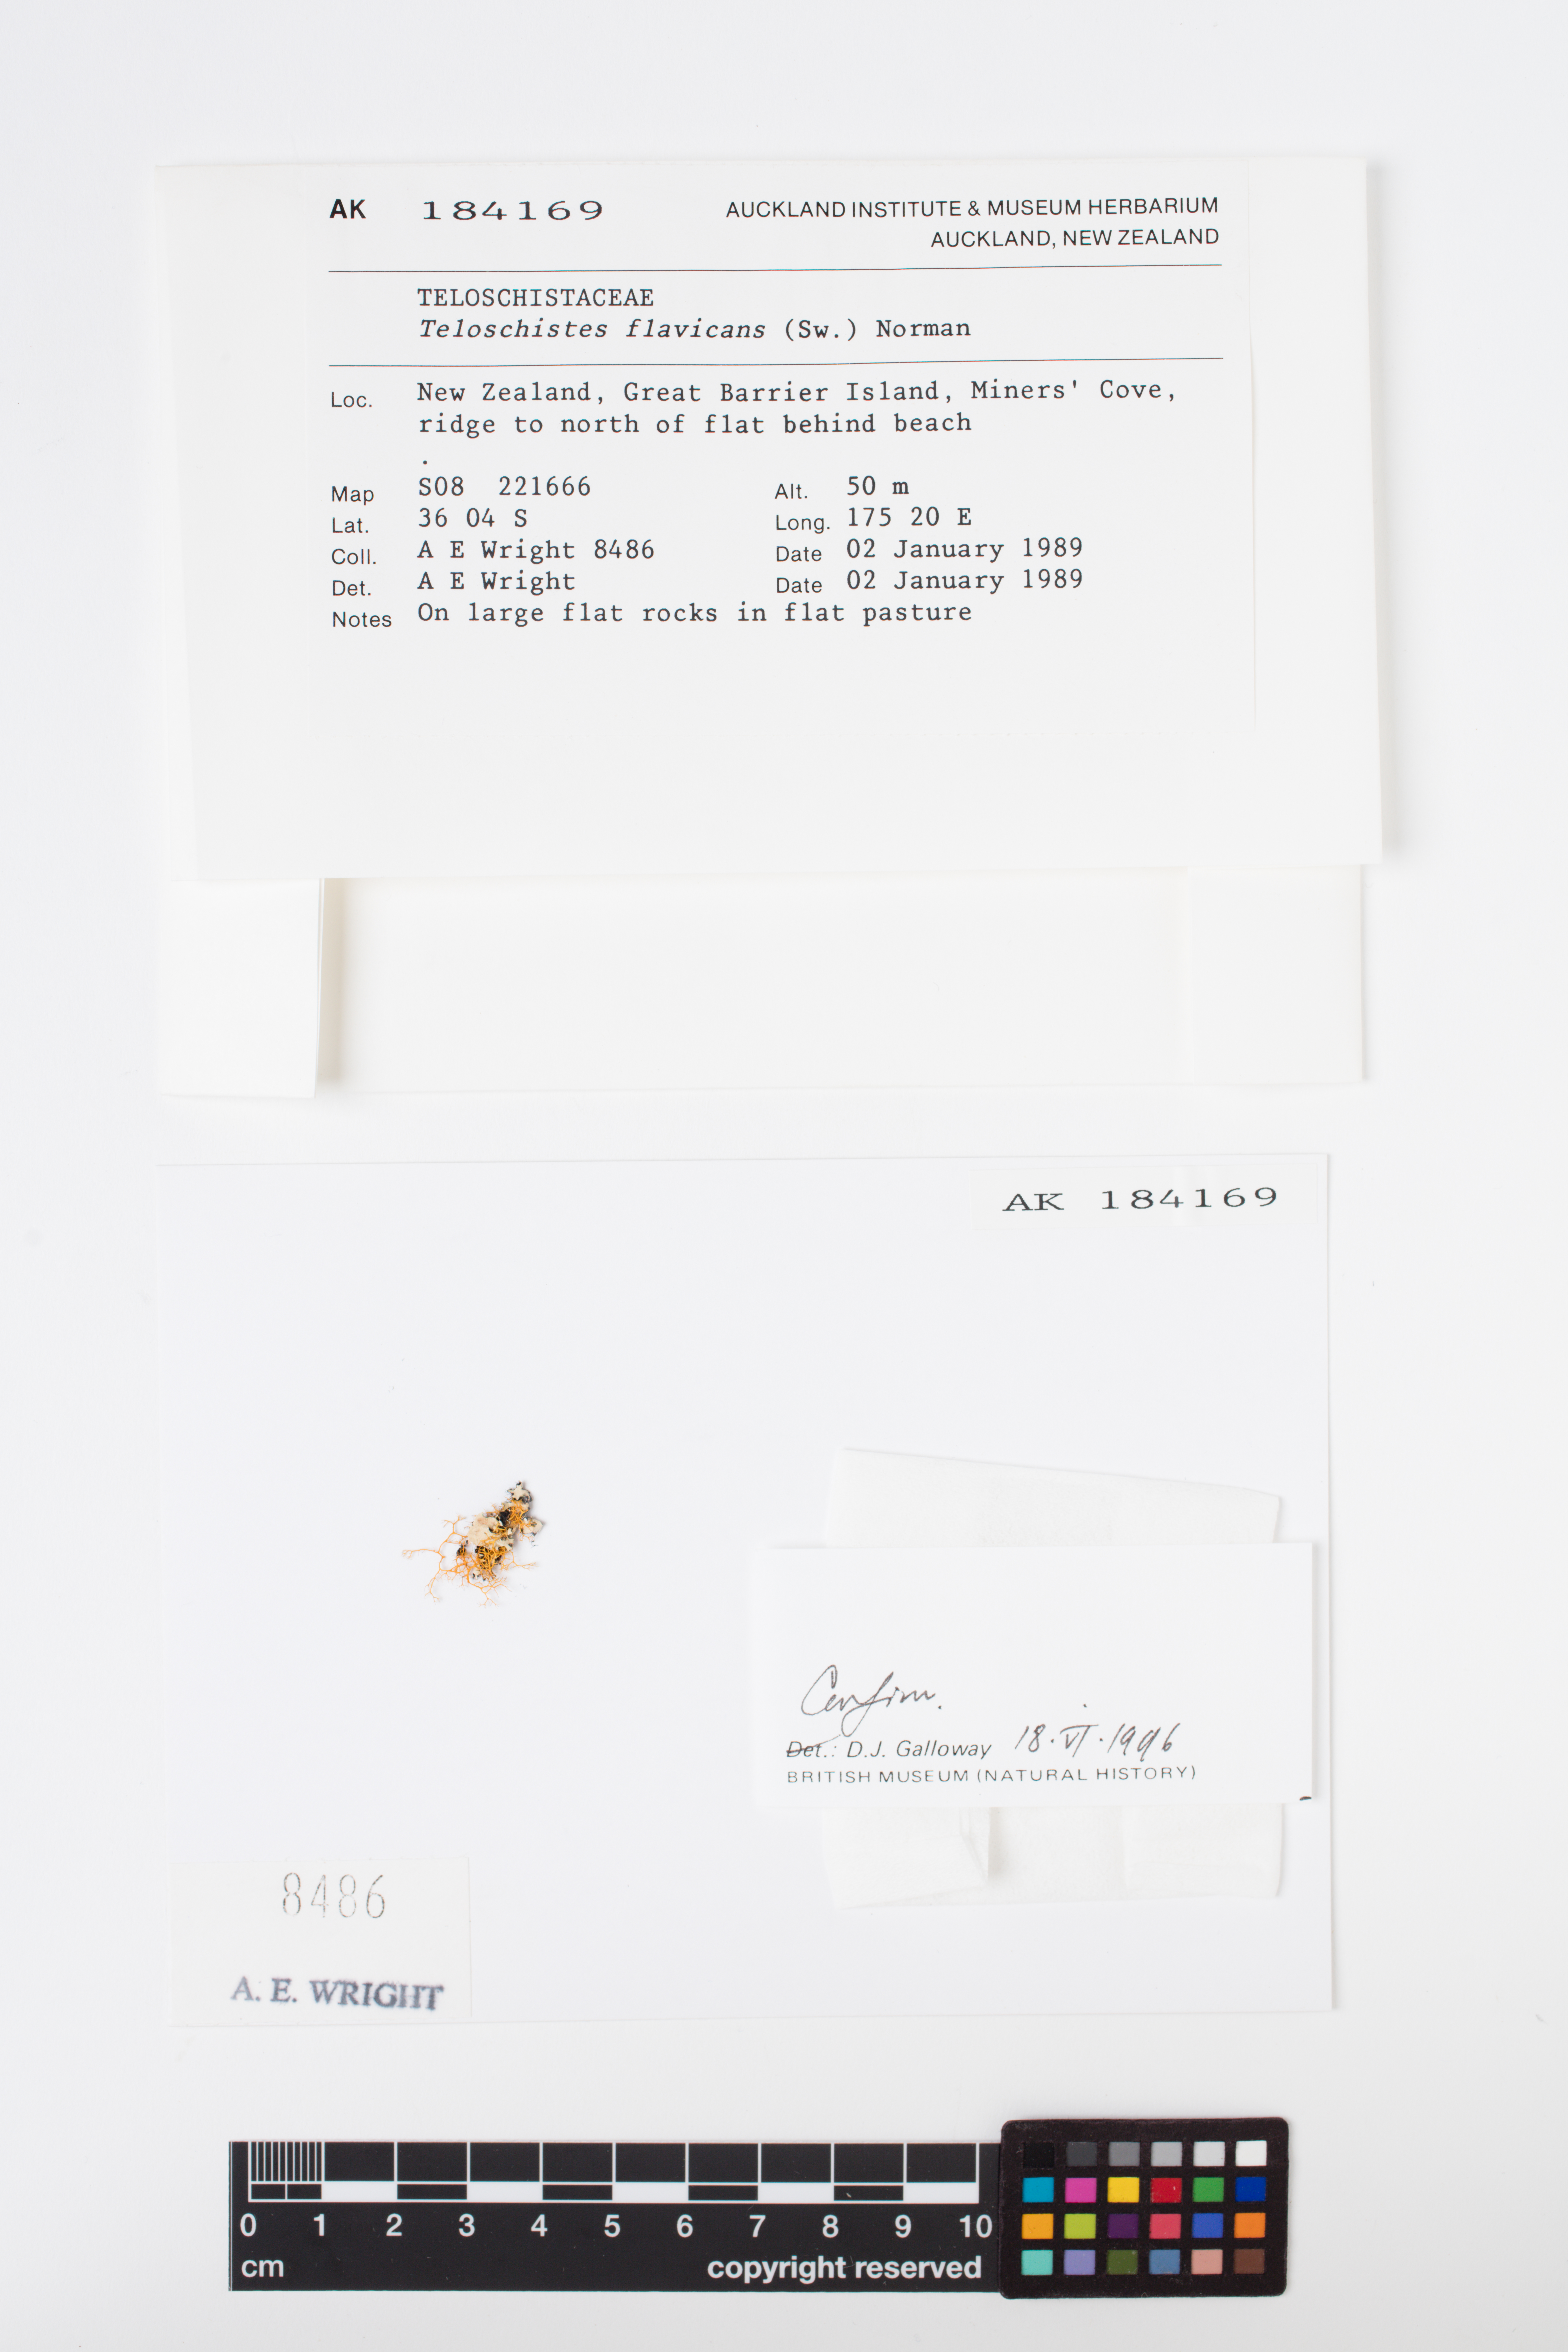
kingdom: Fungi
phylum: Ascomycota
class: Lecanoromycetes
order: Teloschistales
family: Teloschistaceae
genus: Teloschistes
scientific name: Teloschistes flavicans
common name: Golden hair-lichen
